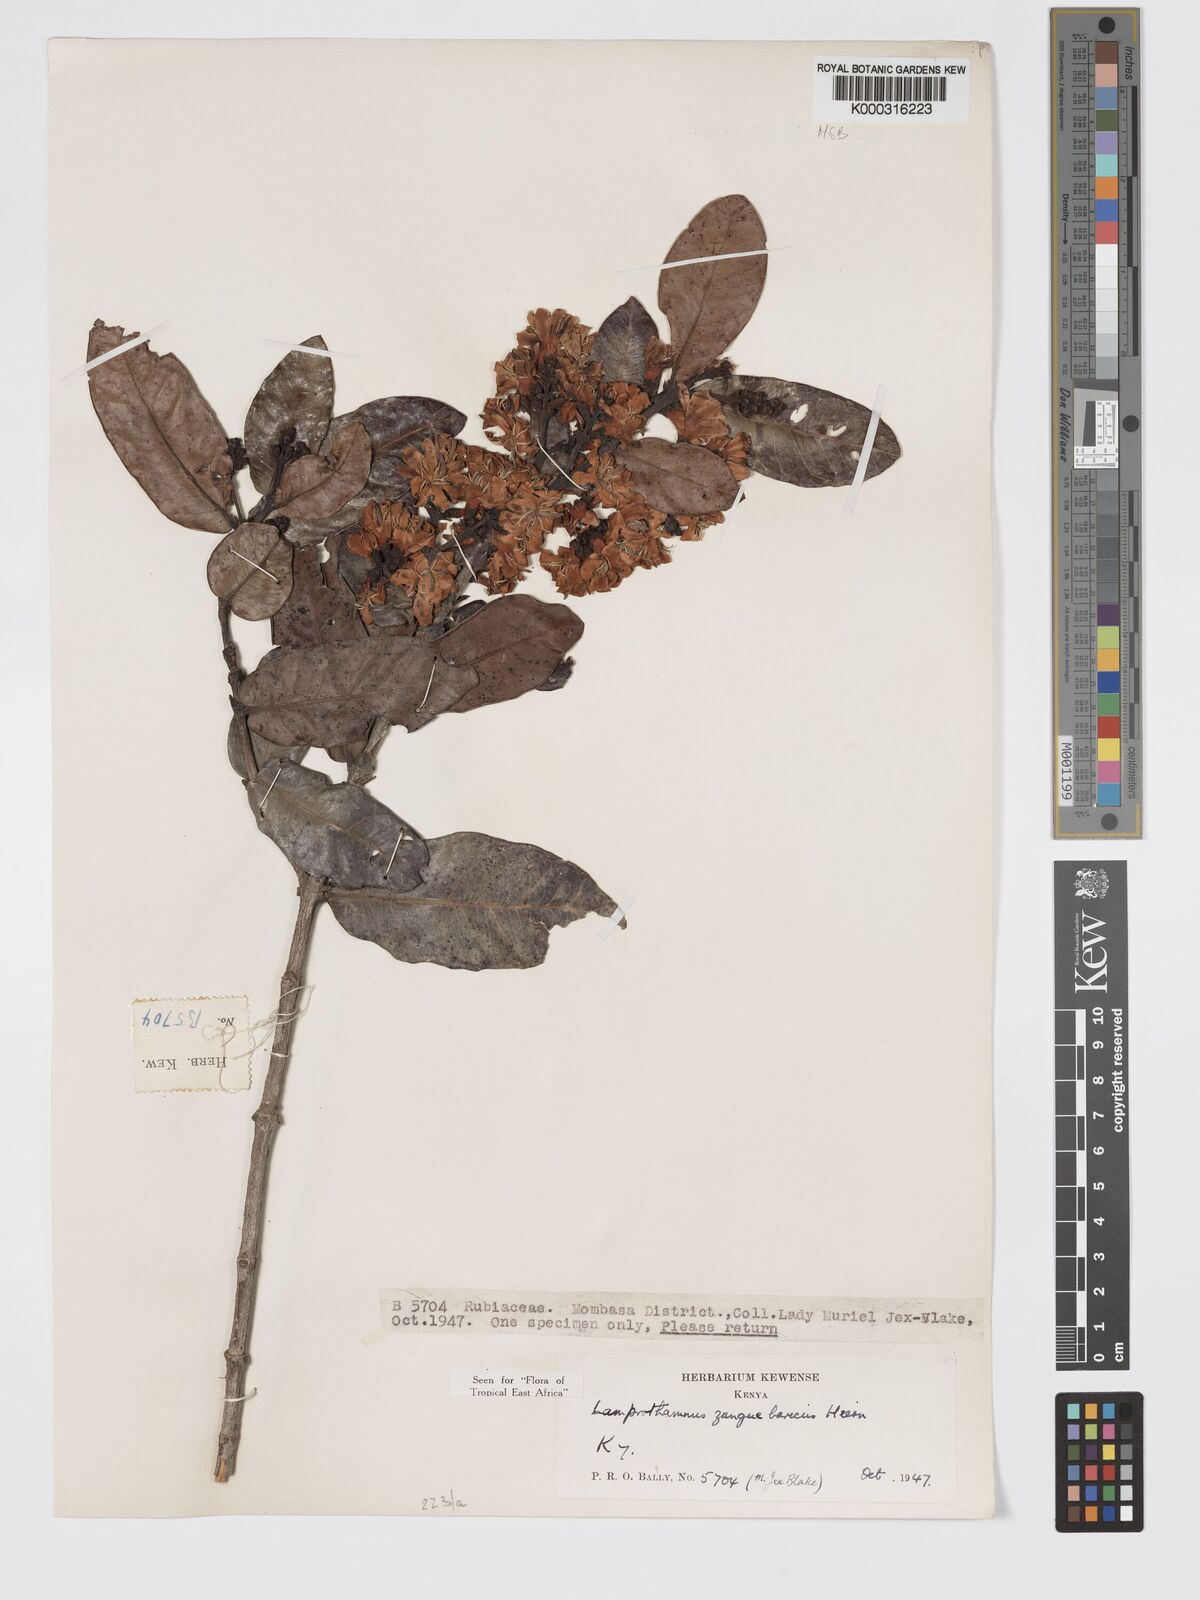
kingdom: Plantae
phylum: Tracheophyta
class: Magnoliopsida
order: Gentianales
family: Rubiaceae
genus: Lamprothamnus
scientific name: Lamprothamnus zanguebaricus
